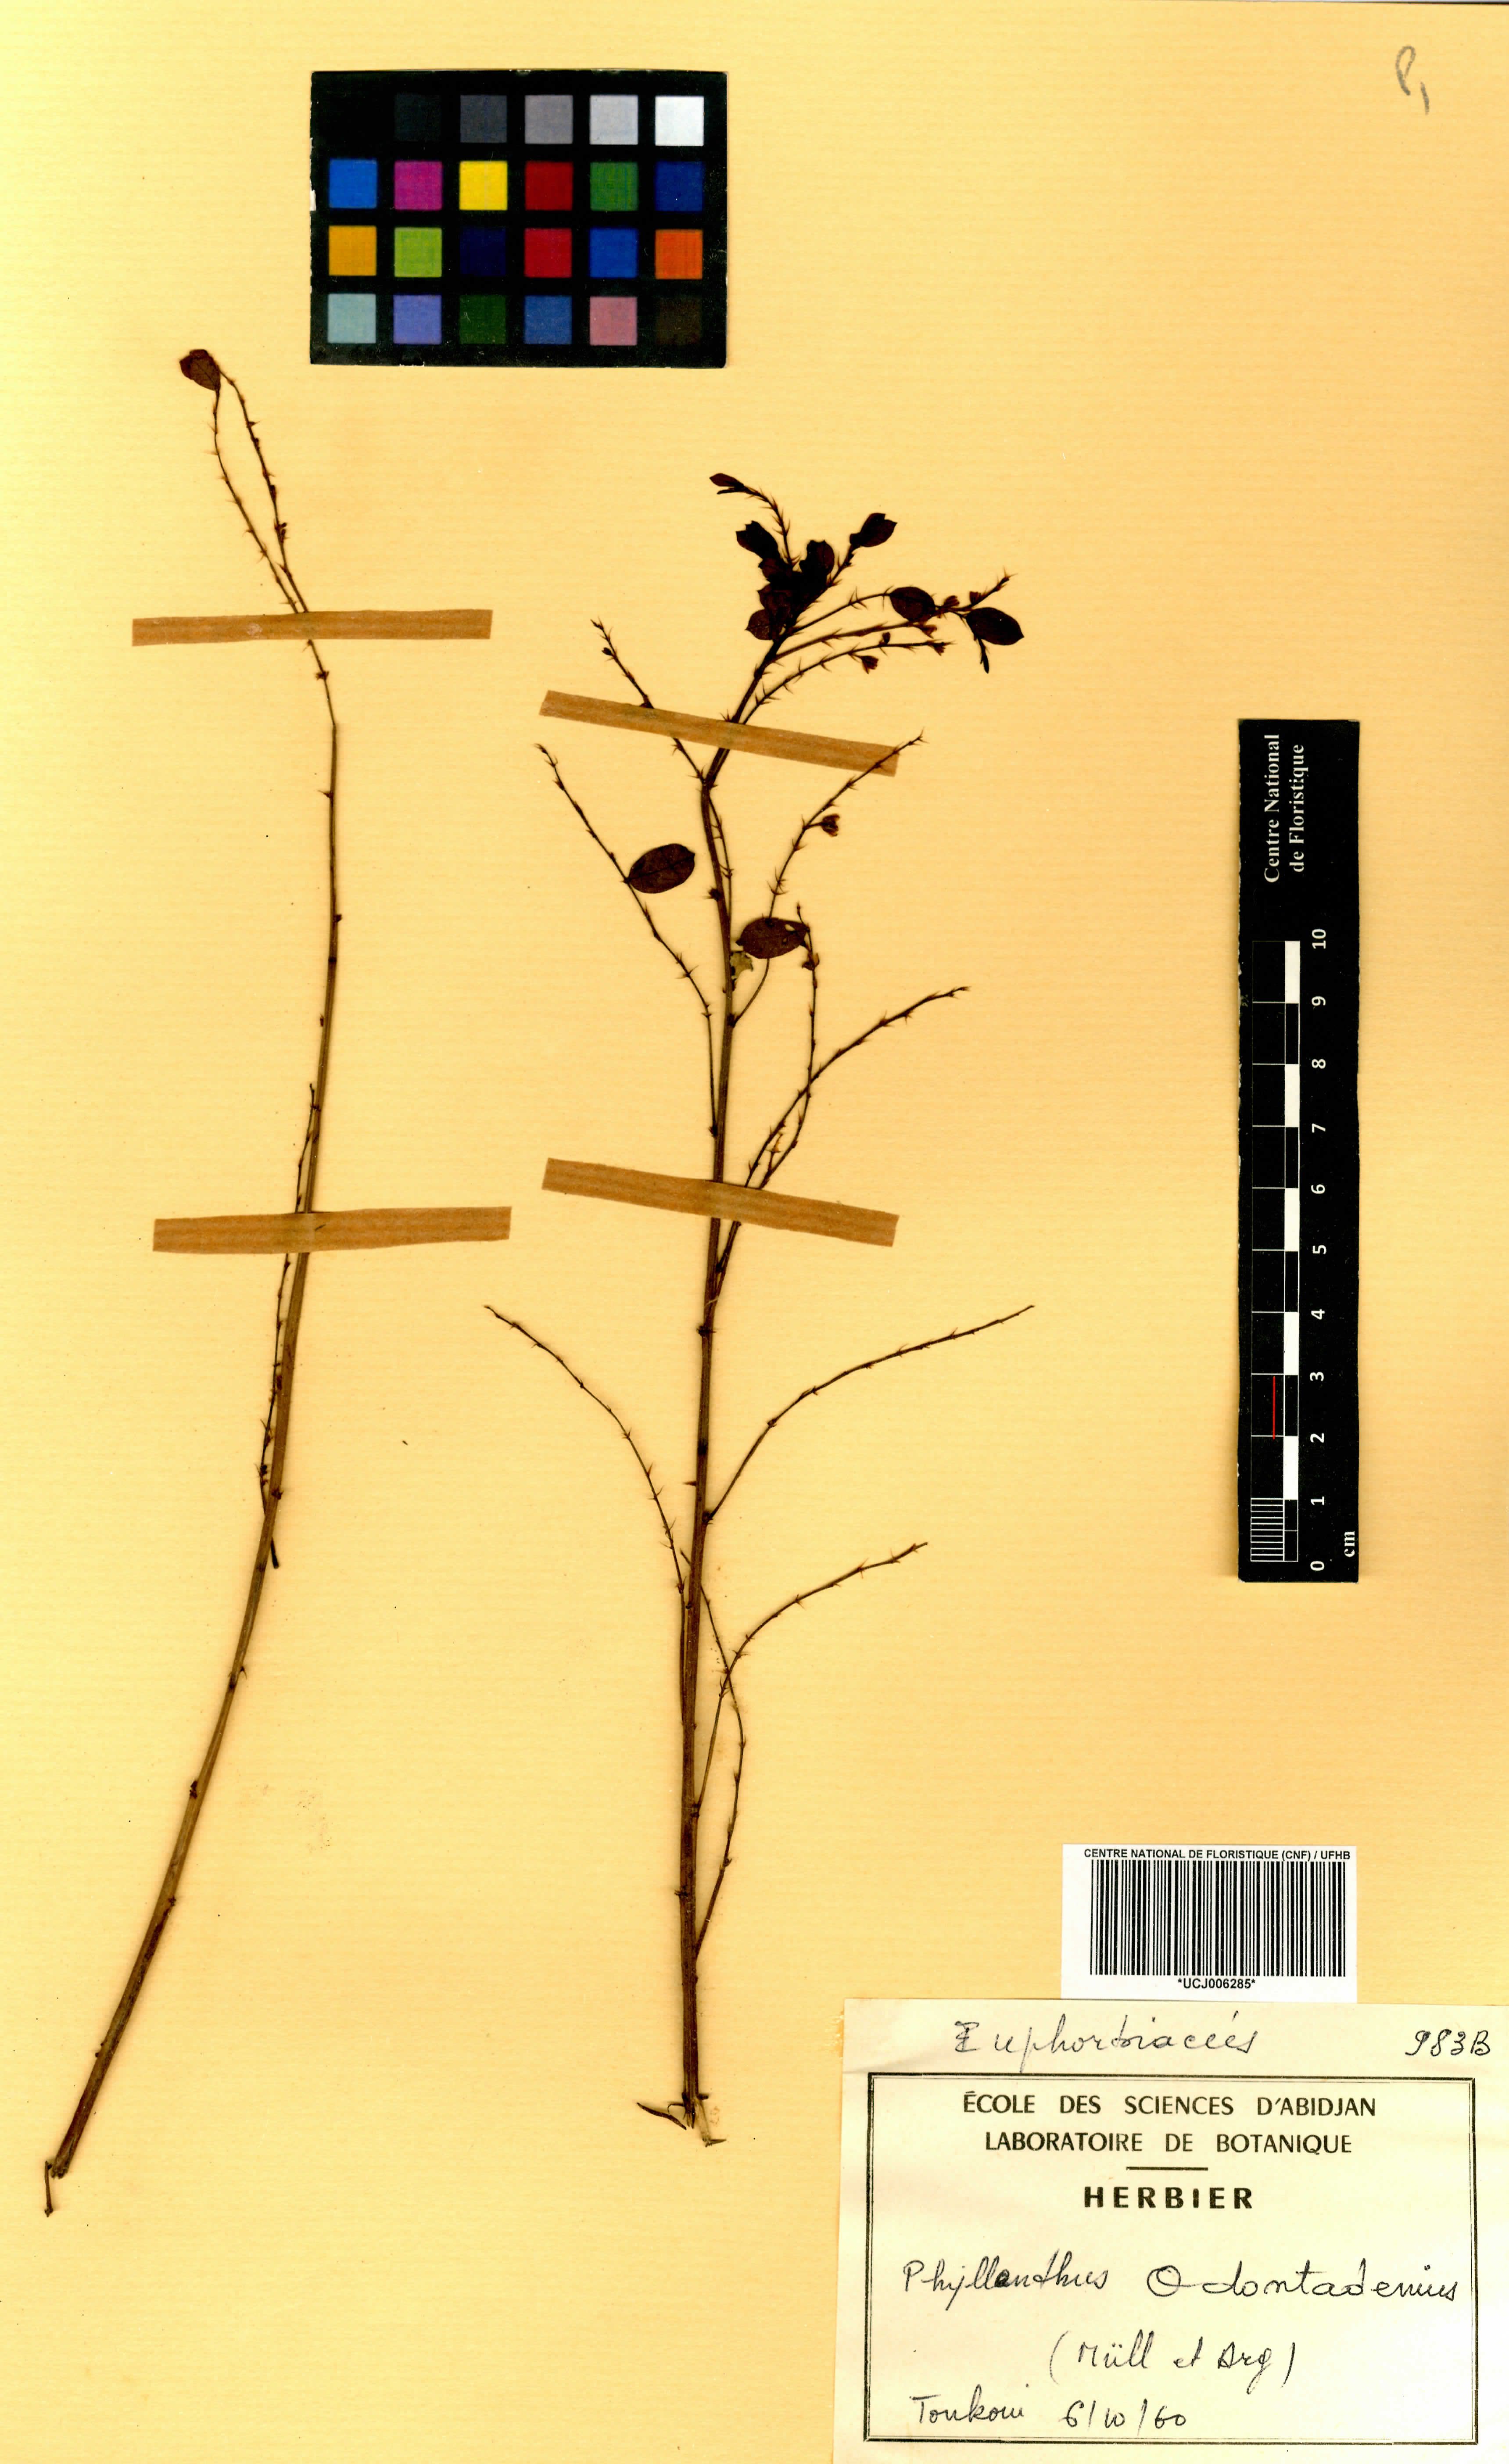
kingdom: Plantae
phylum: Tracheophyta
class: Magnoliopsida
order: Malpighiales
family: Phyllanthaceae
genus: Phyllanthus
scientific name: Phyllanthus odontadenius
